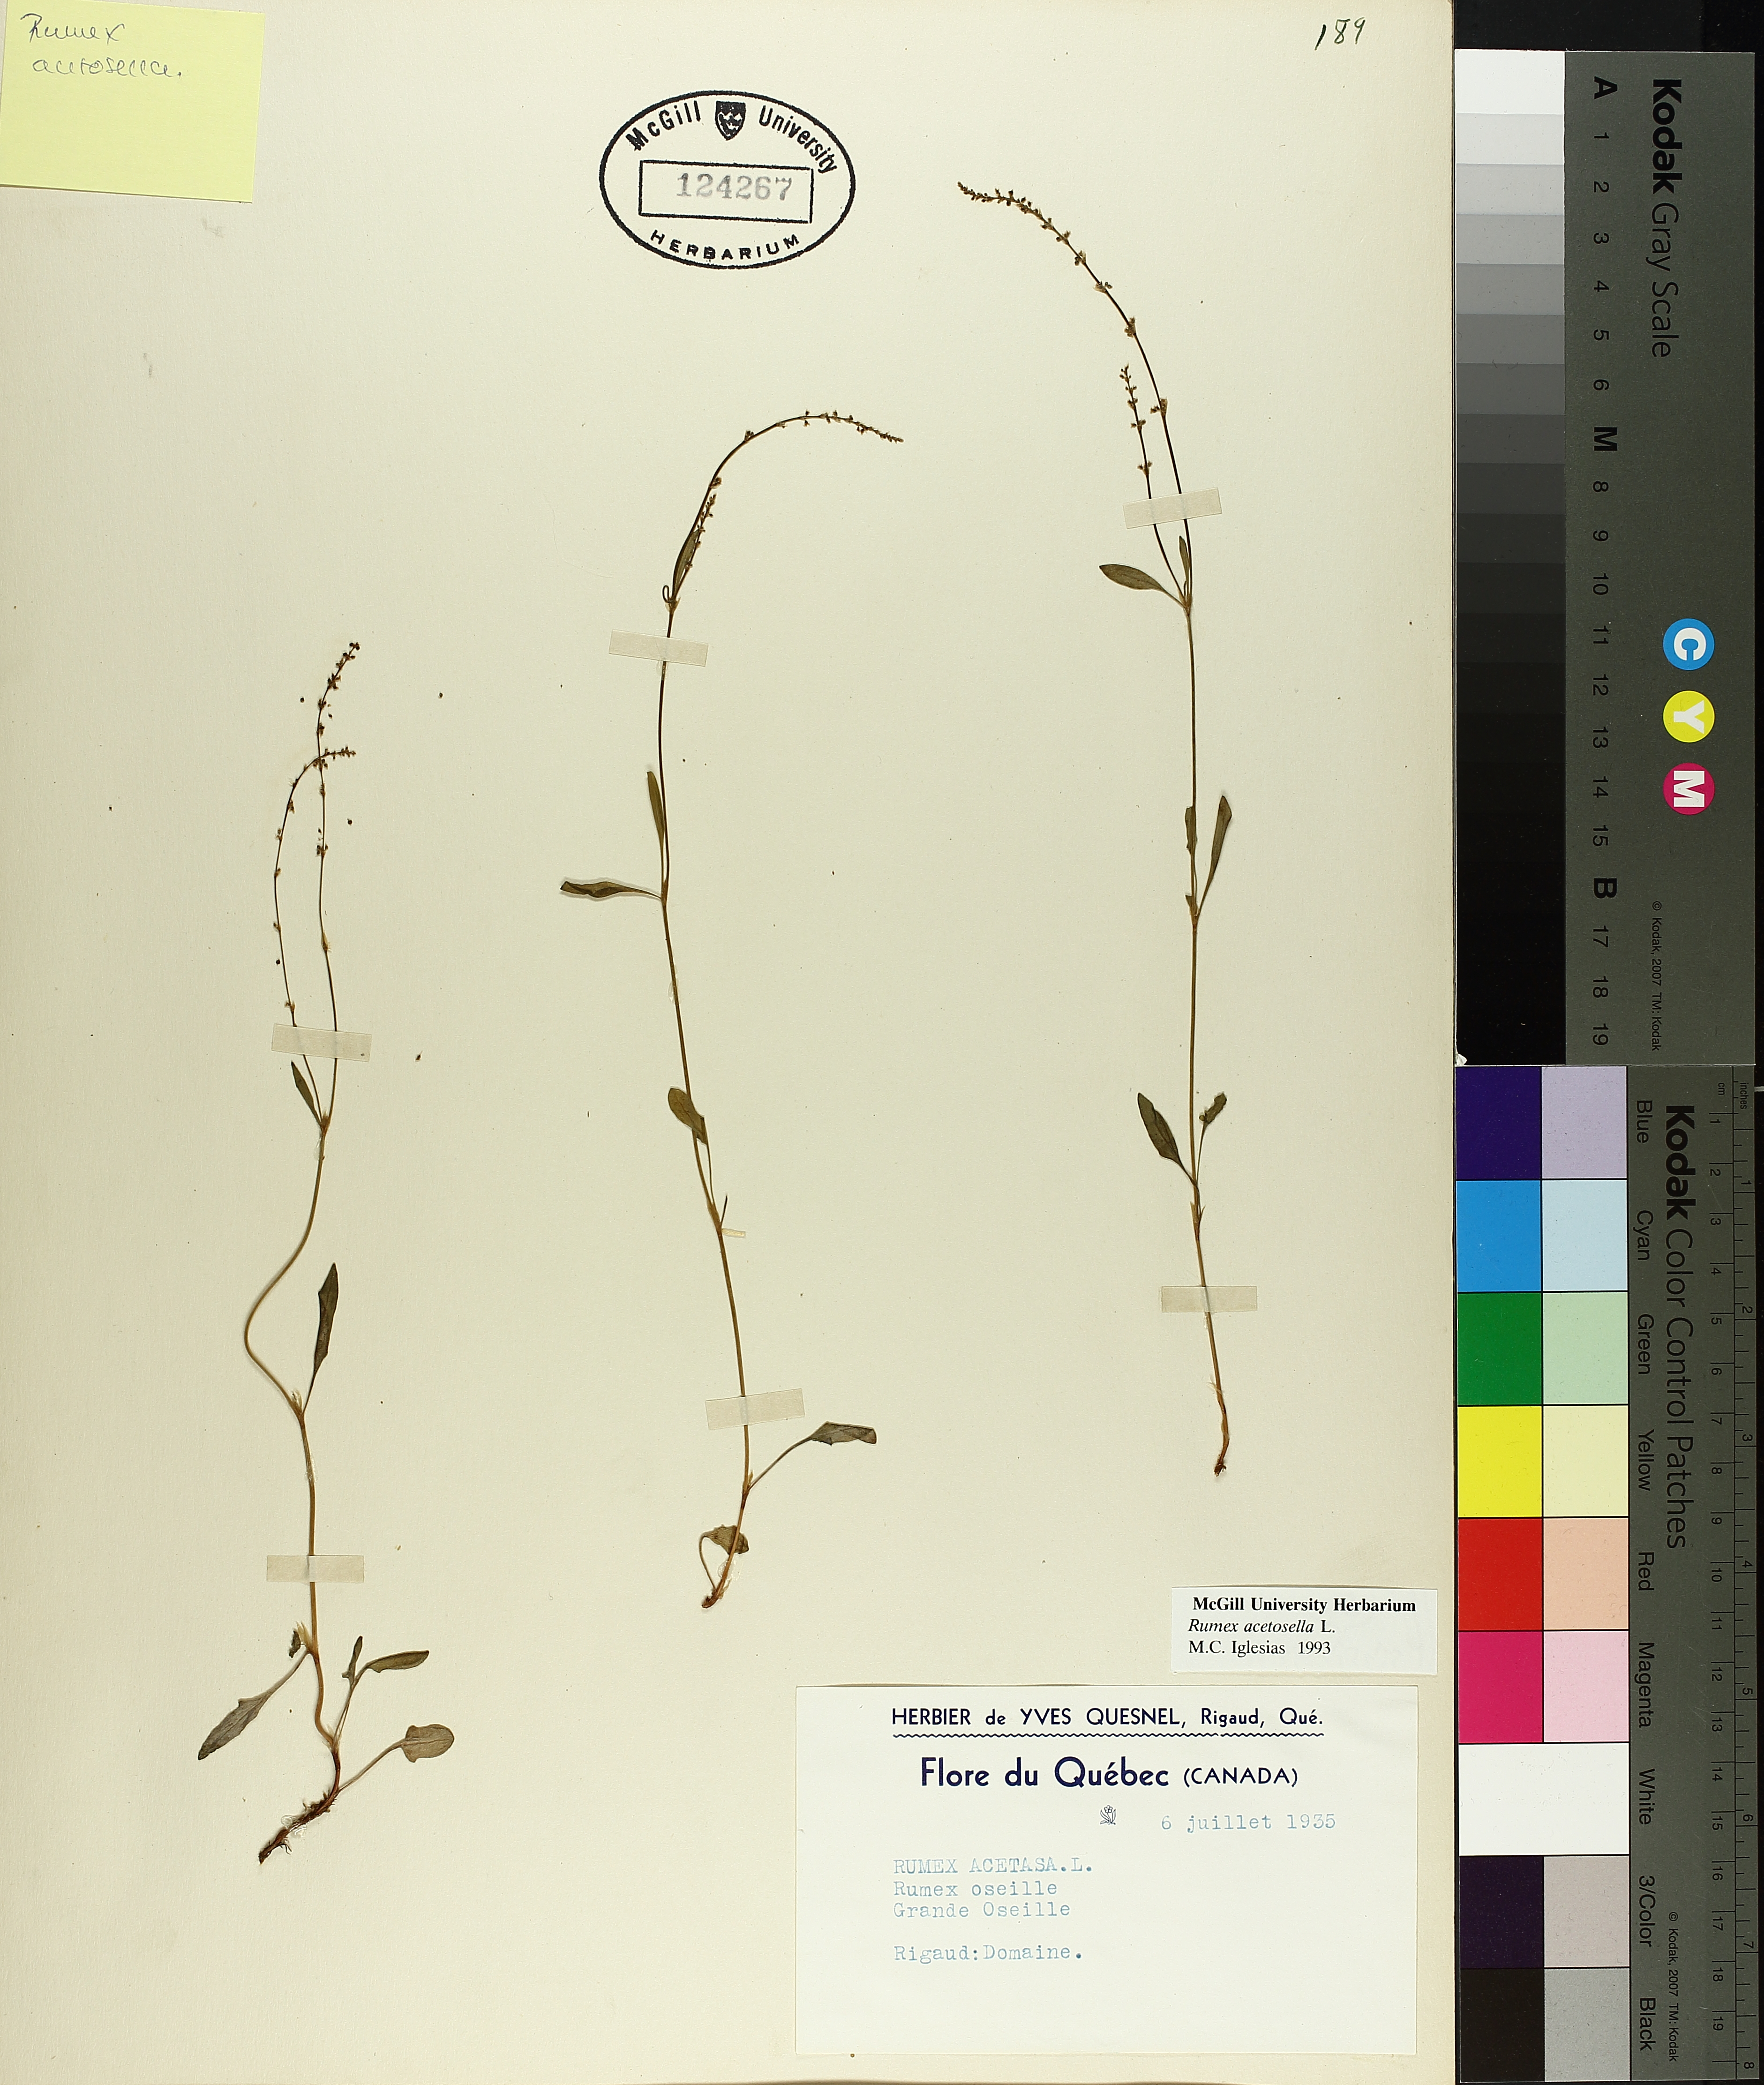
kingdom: Plantae
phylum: Tracheophyta
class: Magnoliopsida
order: Caryophyllales
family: Polygonaceae
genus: Rumex
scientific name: Rumex acetosella
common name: Common sheep sorrel
